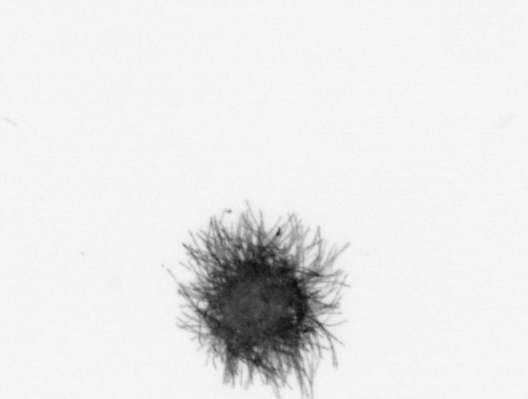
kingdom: Bacteria
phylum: Cyanobacteria
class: Cyanobacteriia
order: Cyanobacteriales
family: Microcoleaceae
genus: Trichodesmium
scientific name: Trichodesmium
